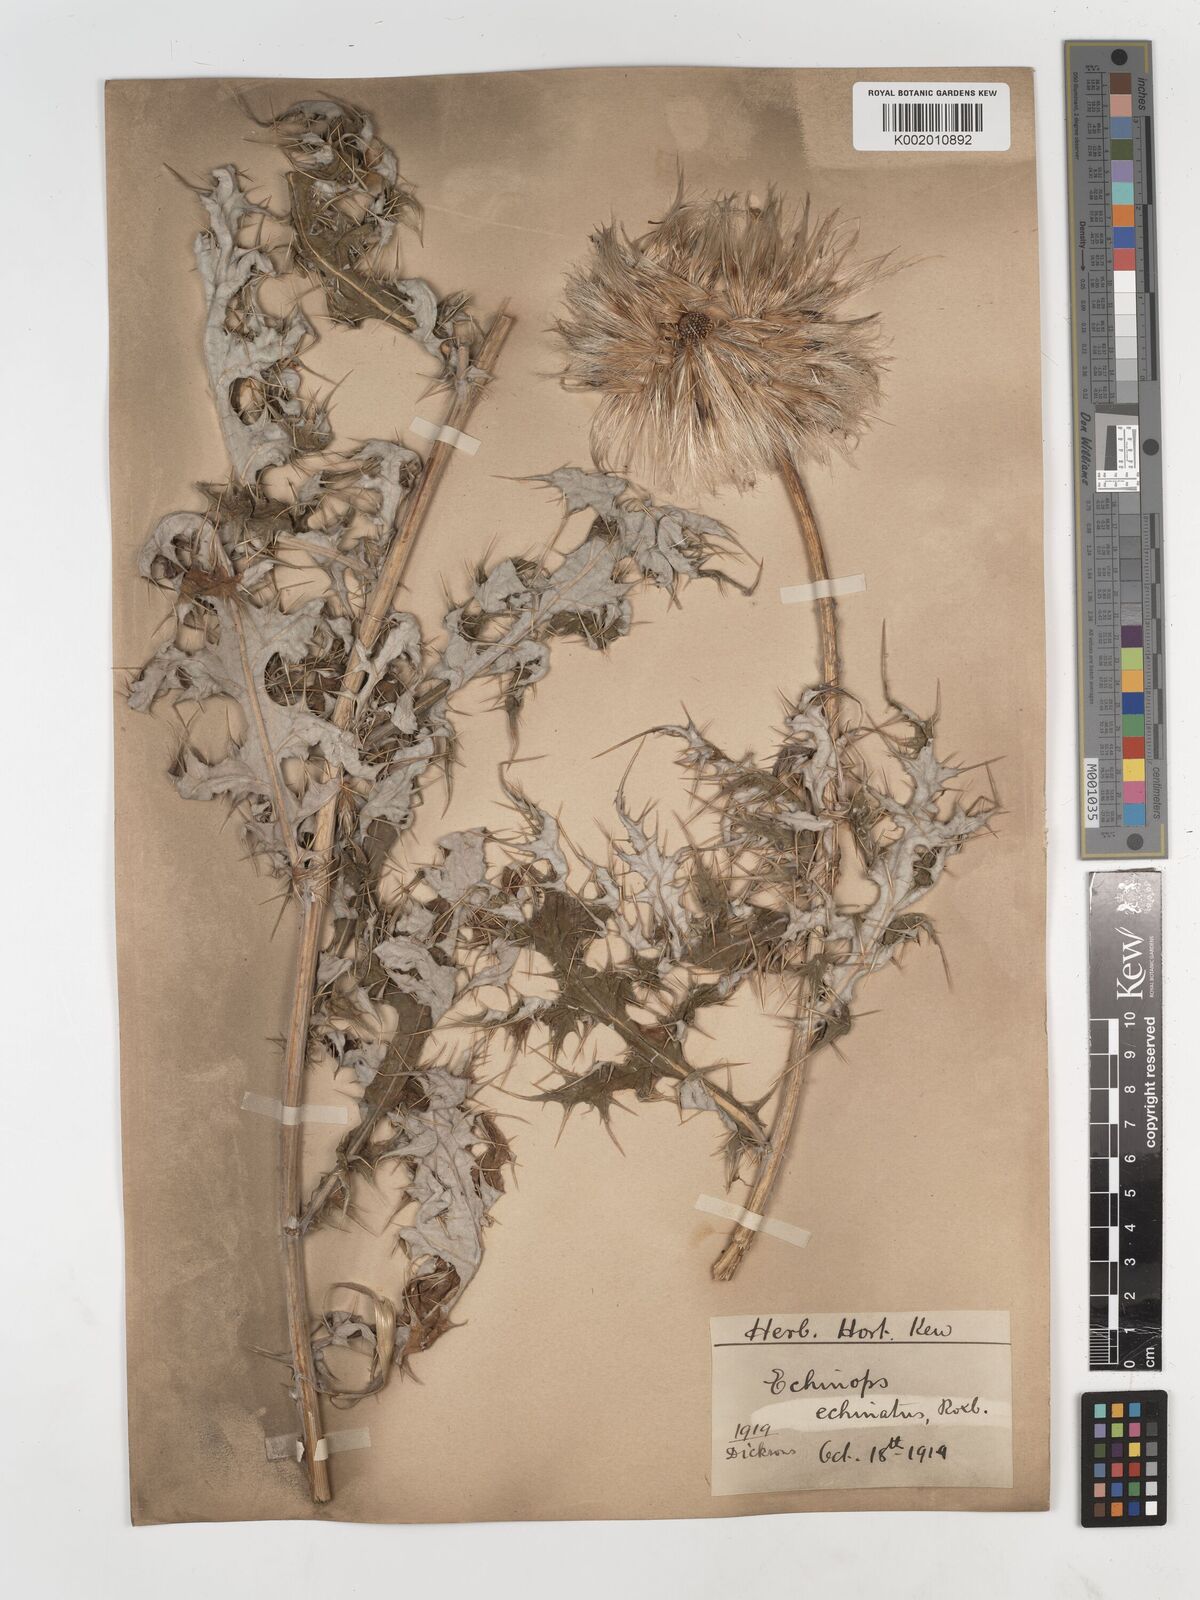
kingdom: Plantae
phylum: Tracheophyta
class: Magnoliopsida
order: Asterales
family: Asteraceae
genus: Echinops
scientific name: Echinops echinatus
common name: Indian globe thistle
